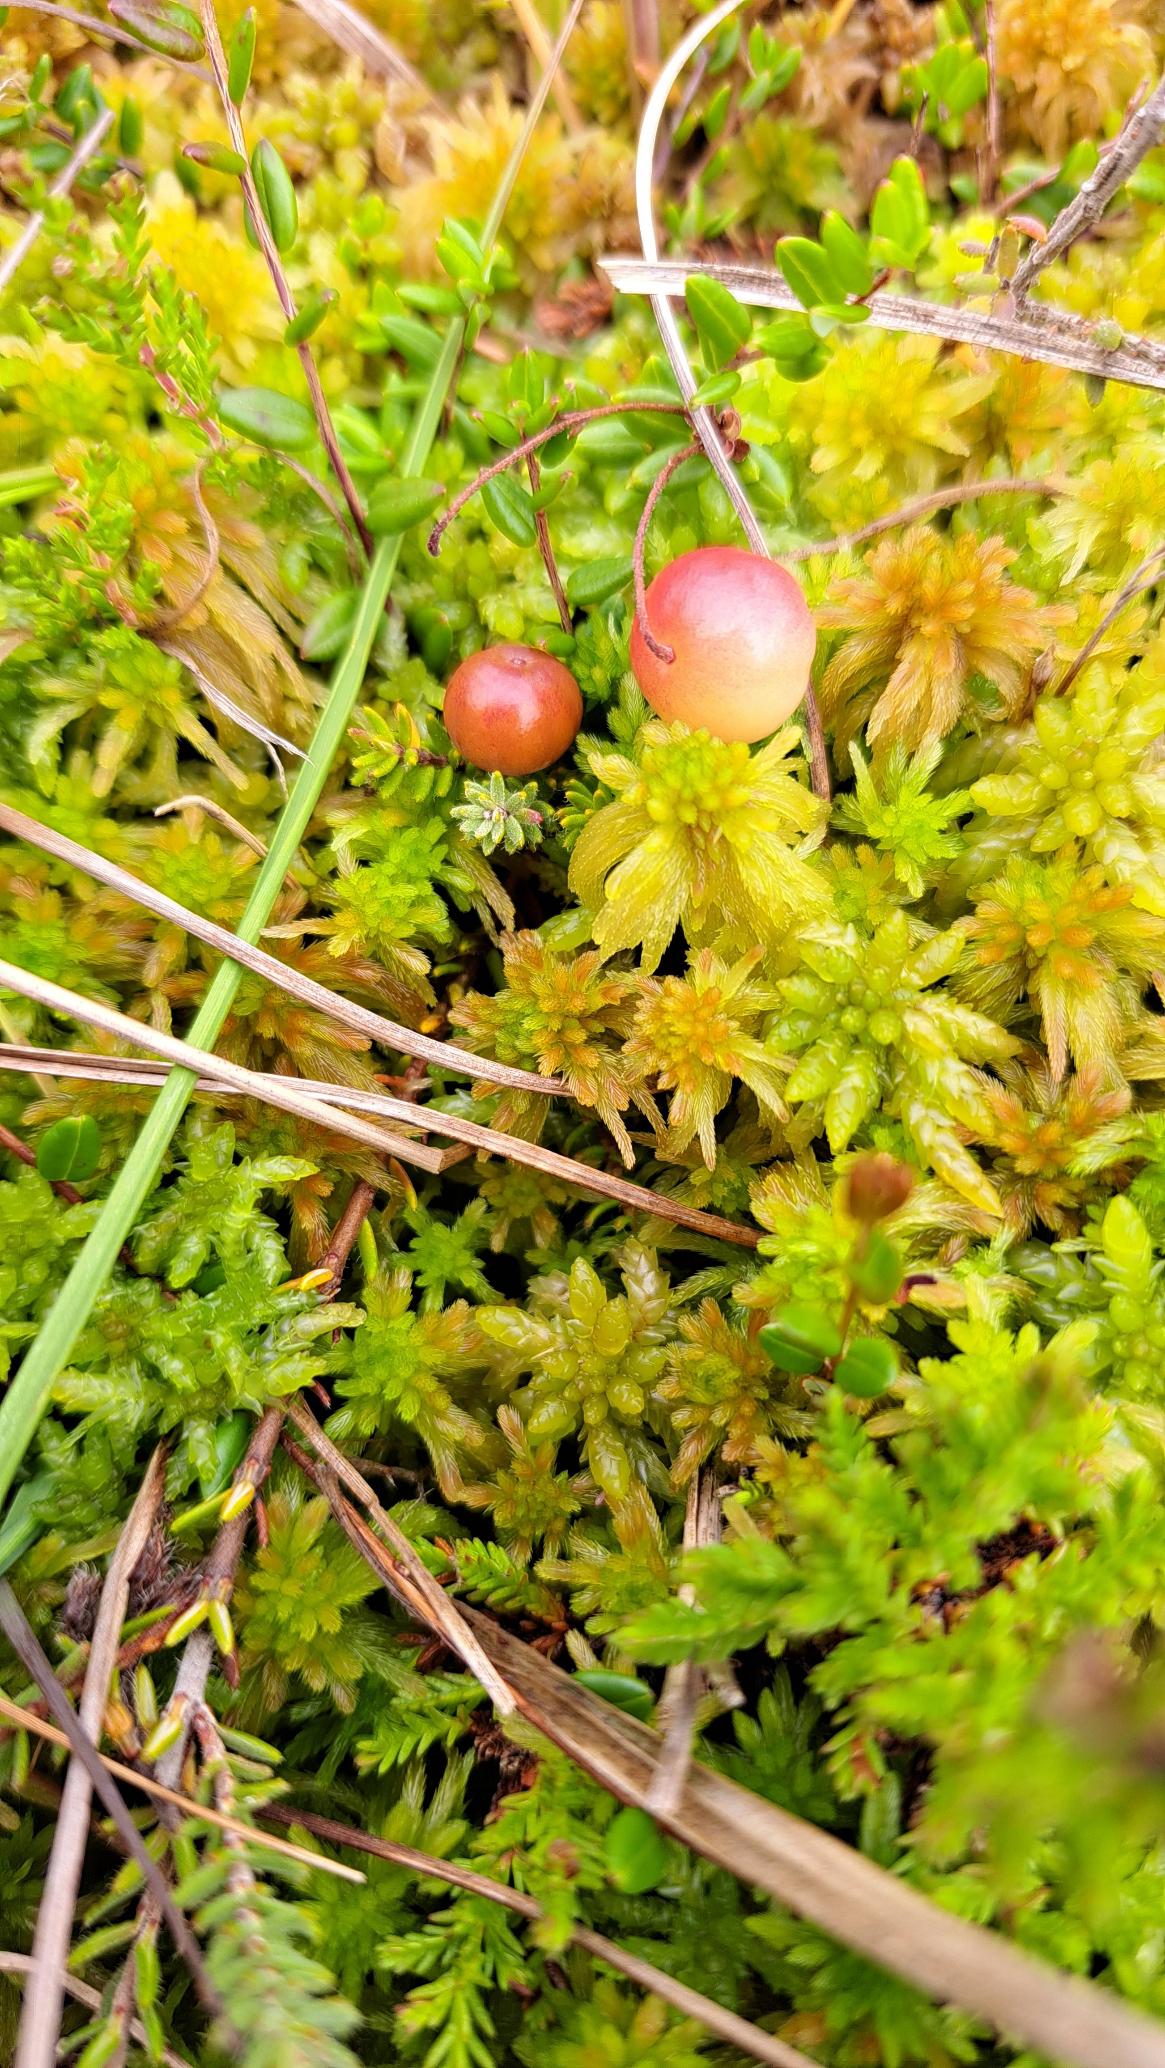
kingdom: Plantae
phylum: Tracheophyta
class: Magnoliopsida
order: Ericales
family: Ericaceae
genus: Vaccinium
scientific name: Vaccinium oxycoccos
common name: Tranebær
